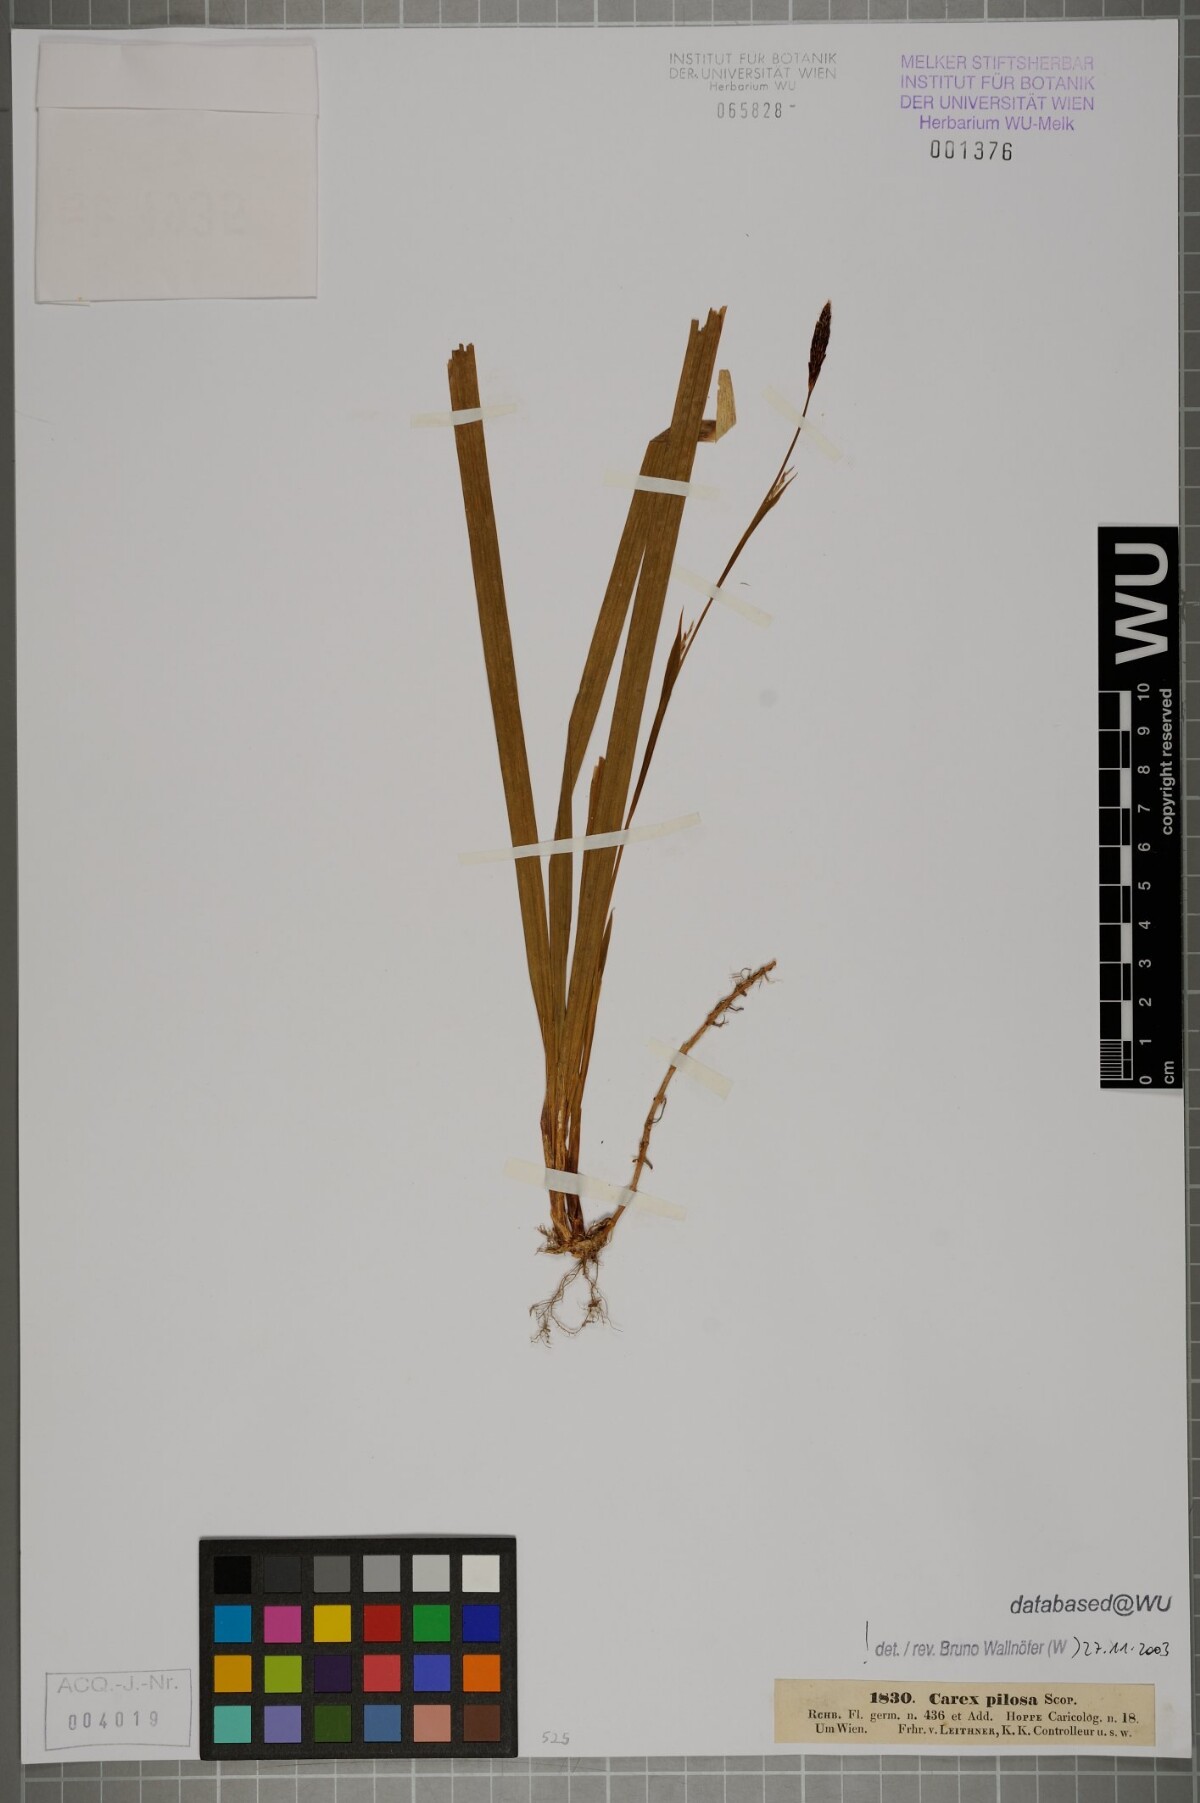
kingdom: Plantae
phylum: Tracheophyta
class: Liliopsida
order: Poales
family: Cyperaceae
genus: Carex
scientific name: Carex pilosa
